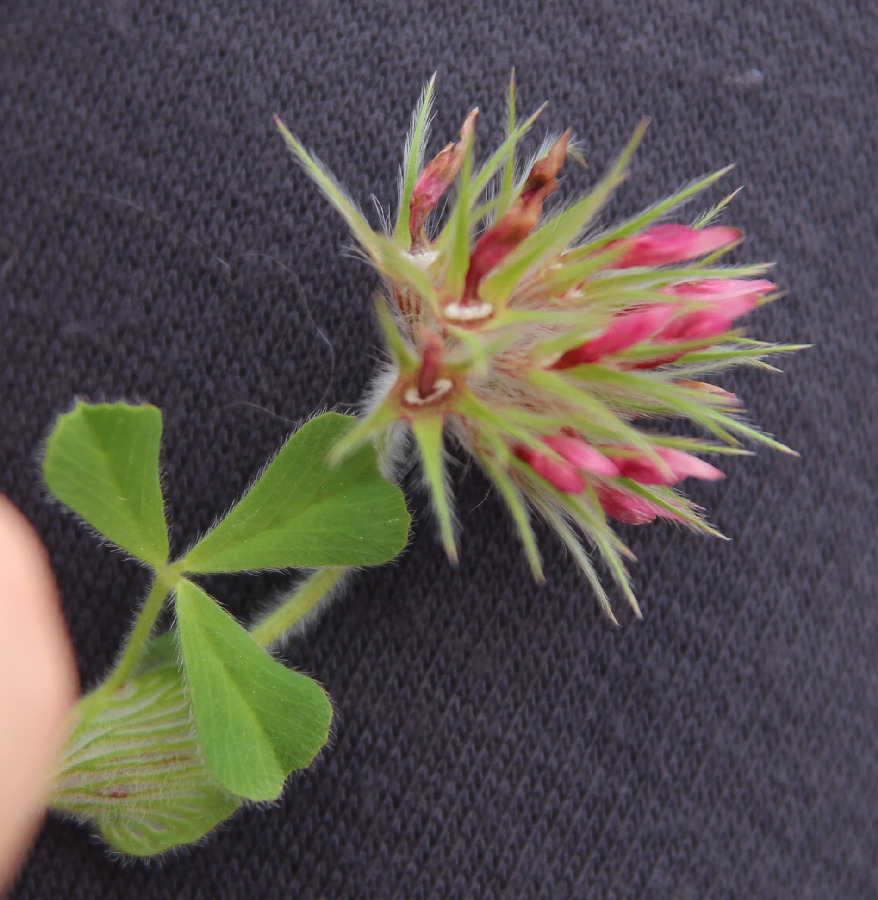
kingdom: Plantae
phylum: Tracheophyta
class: Magnoliopsida
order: Fabales
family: Fabaceae
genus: Trifolium
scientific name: Trifolium stellatum
